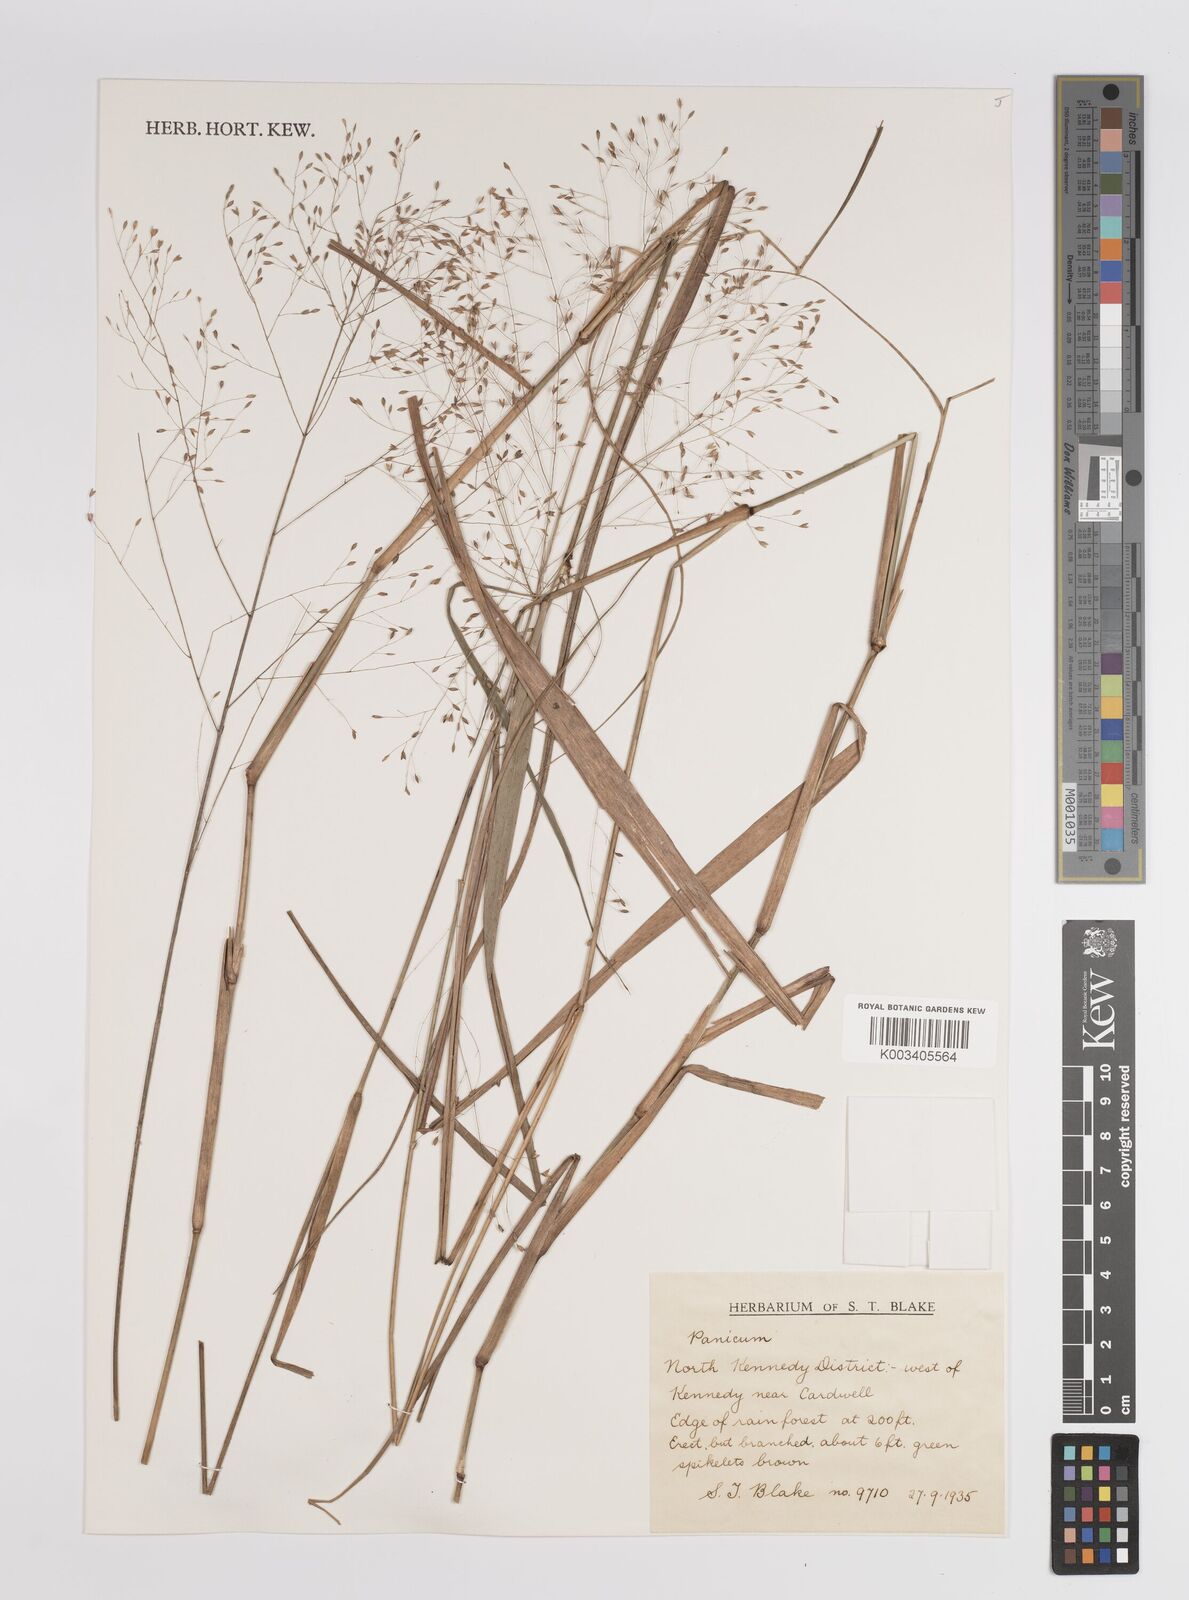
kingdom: Plantae
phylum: Tracheophyta
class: Liliopsida
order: Poales
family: Poaceae
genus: Panicum
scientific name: Panicum
